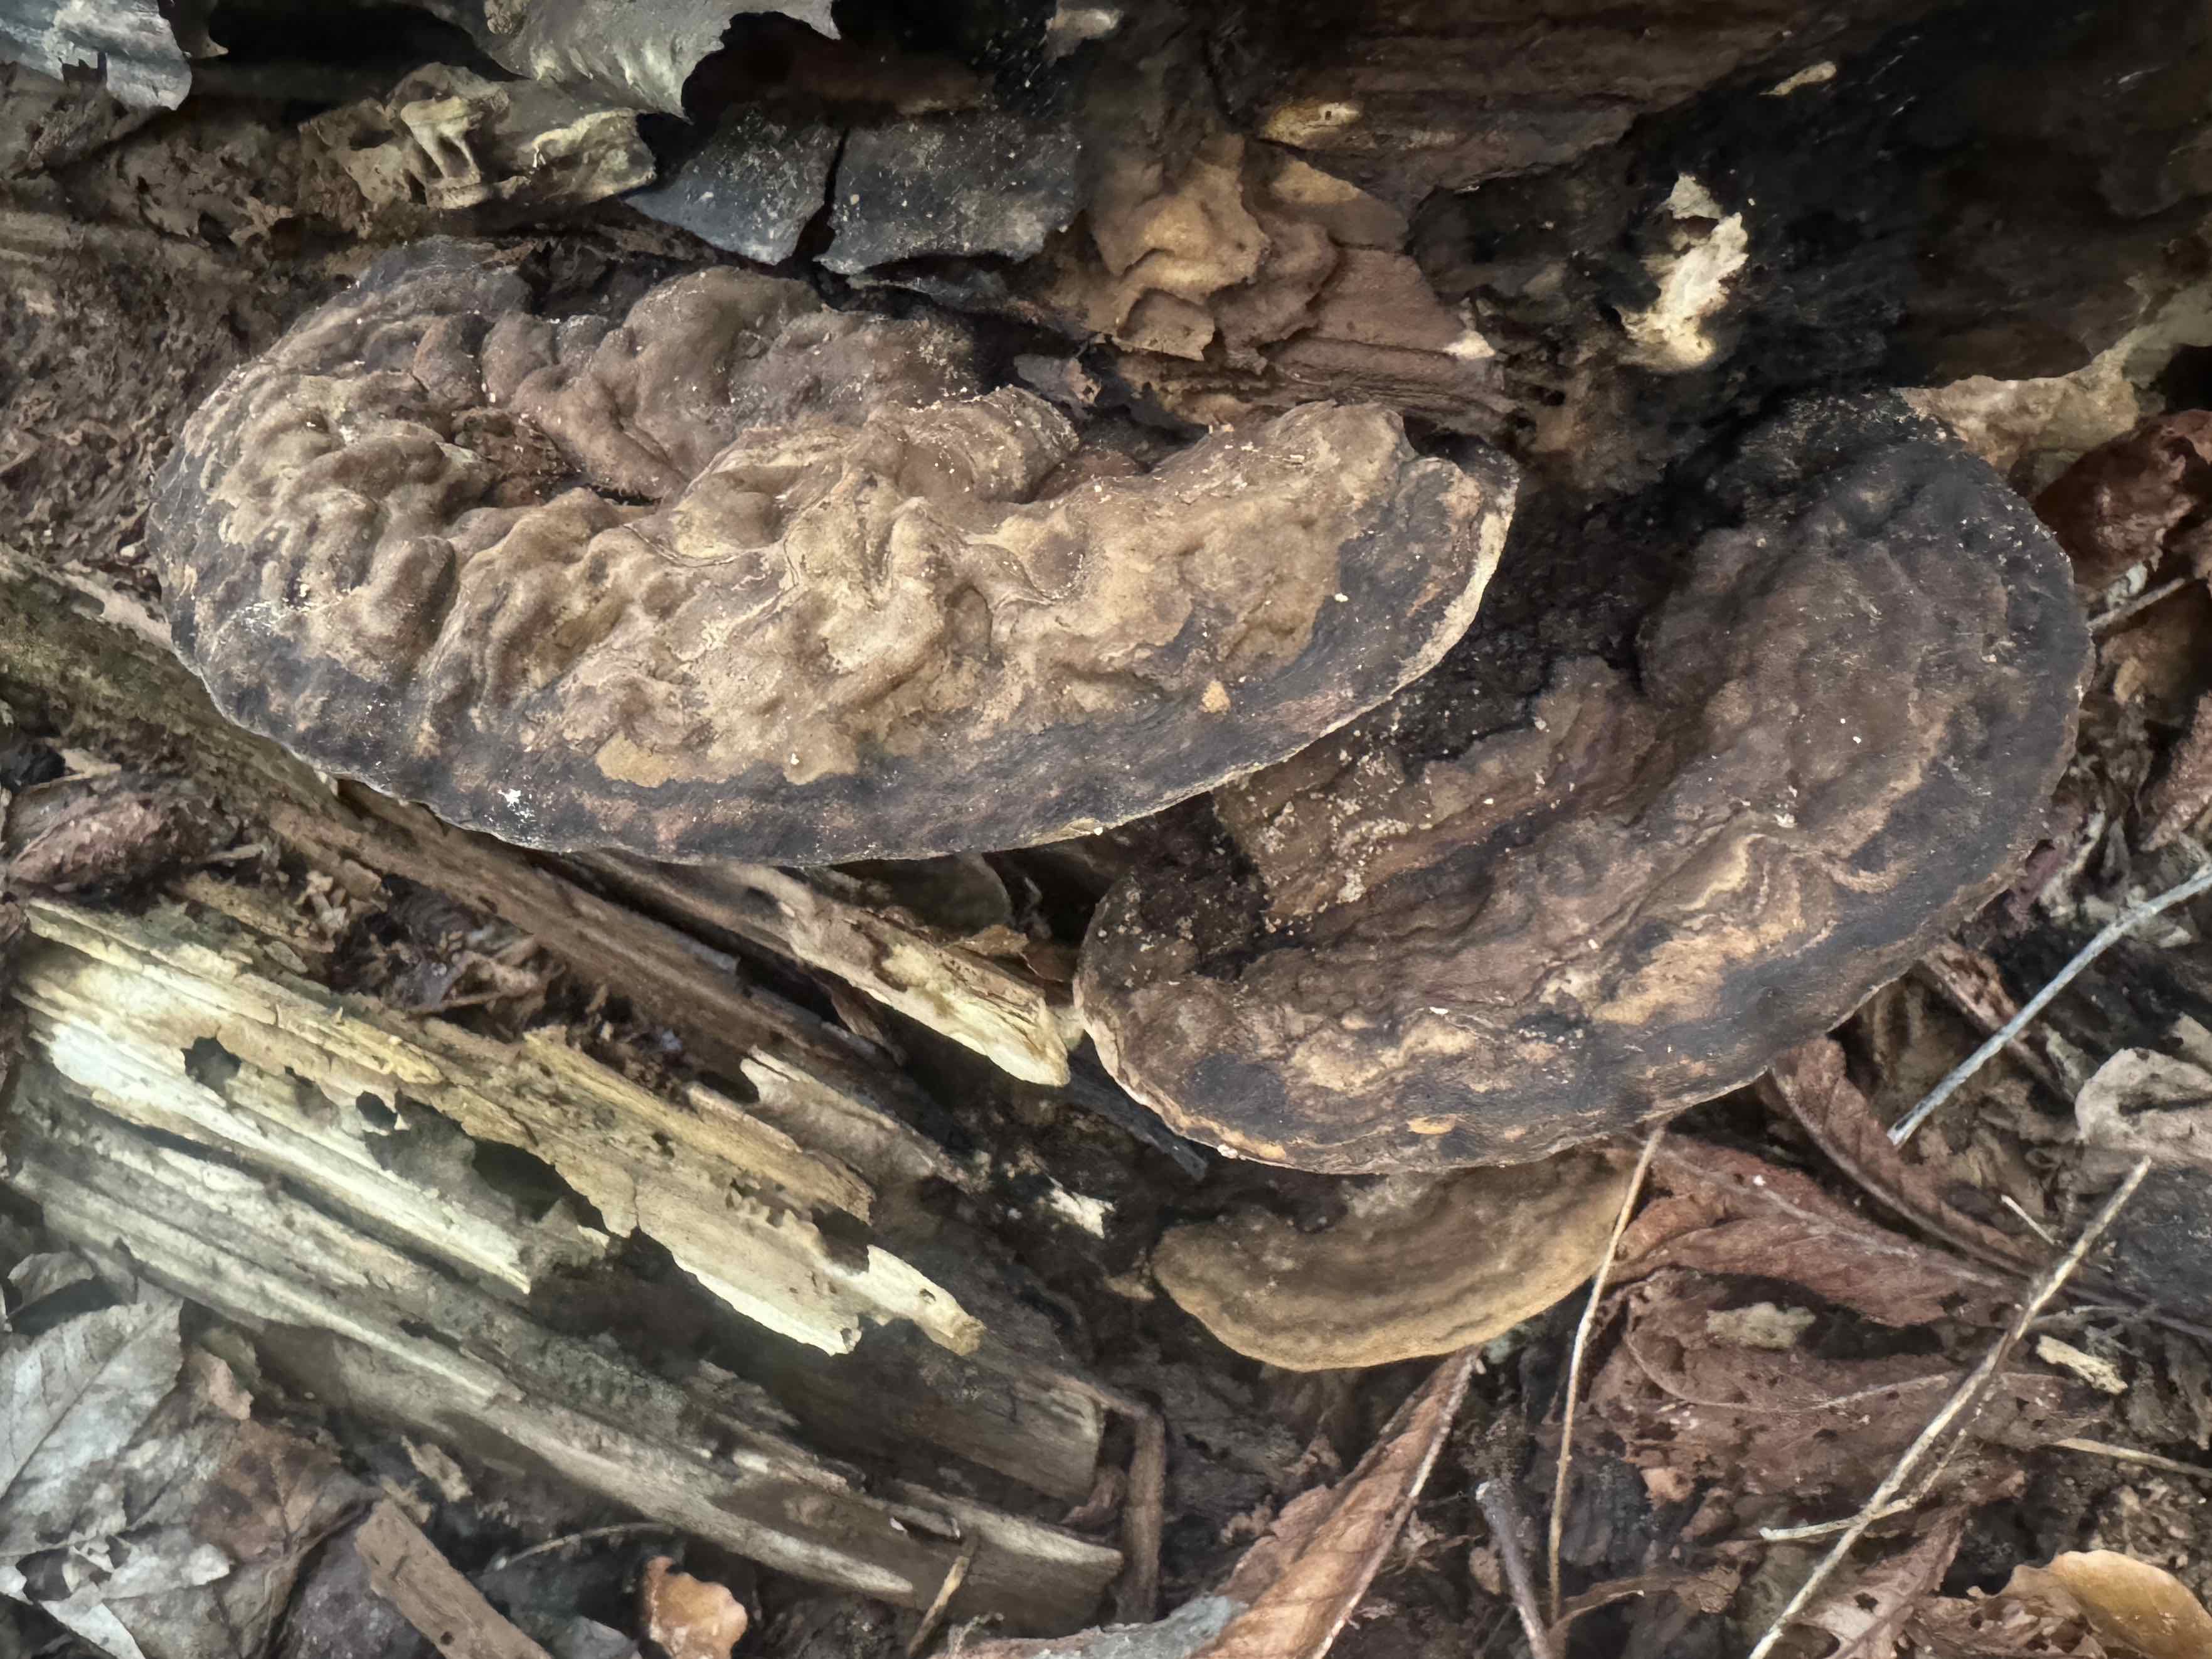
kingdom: Fungi
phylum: Basidiomycota
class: Agaricomycetes
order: Polyporales
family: Polyporaceae
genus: Ganoderma
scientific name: Ganoderma
